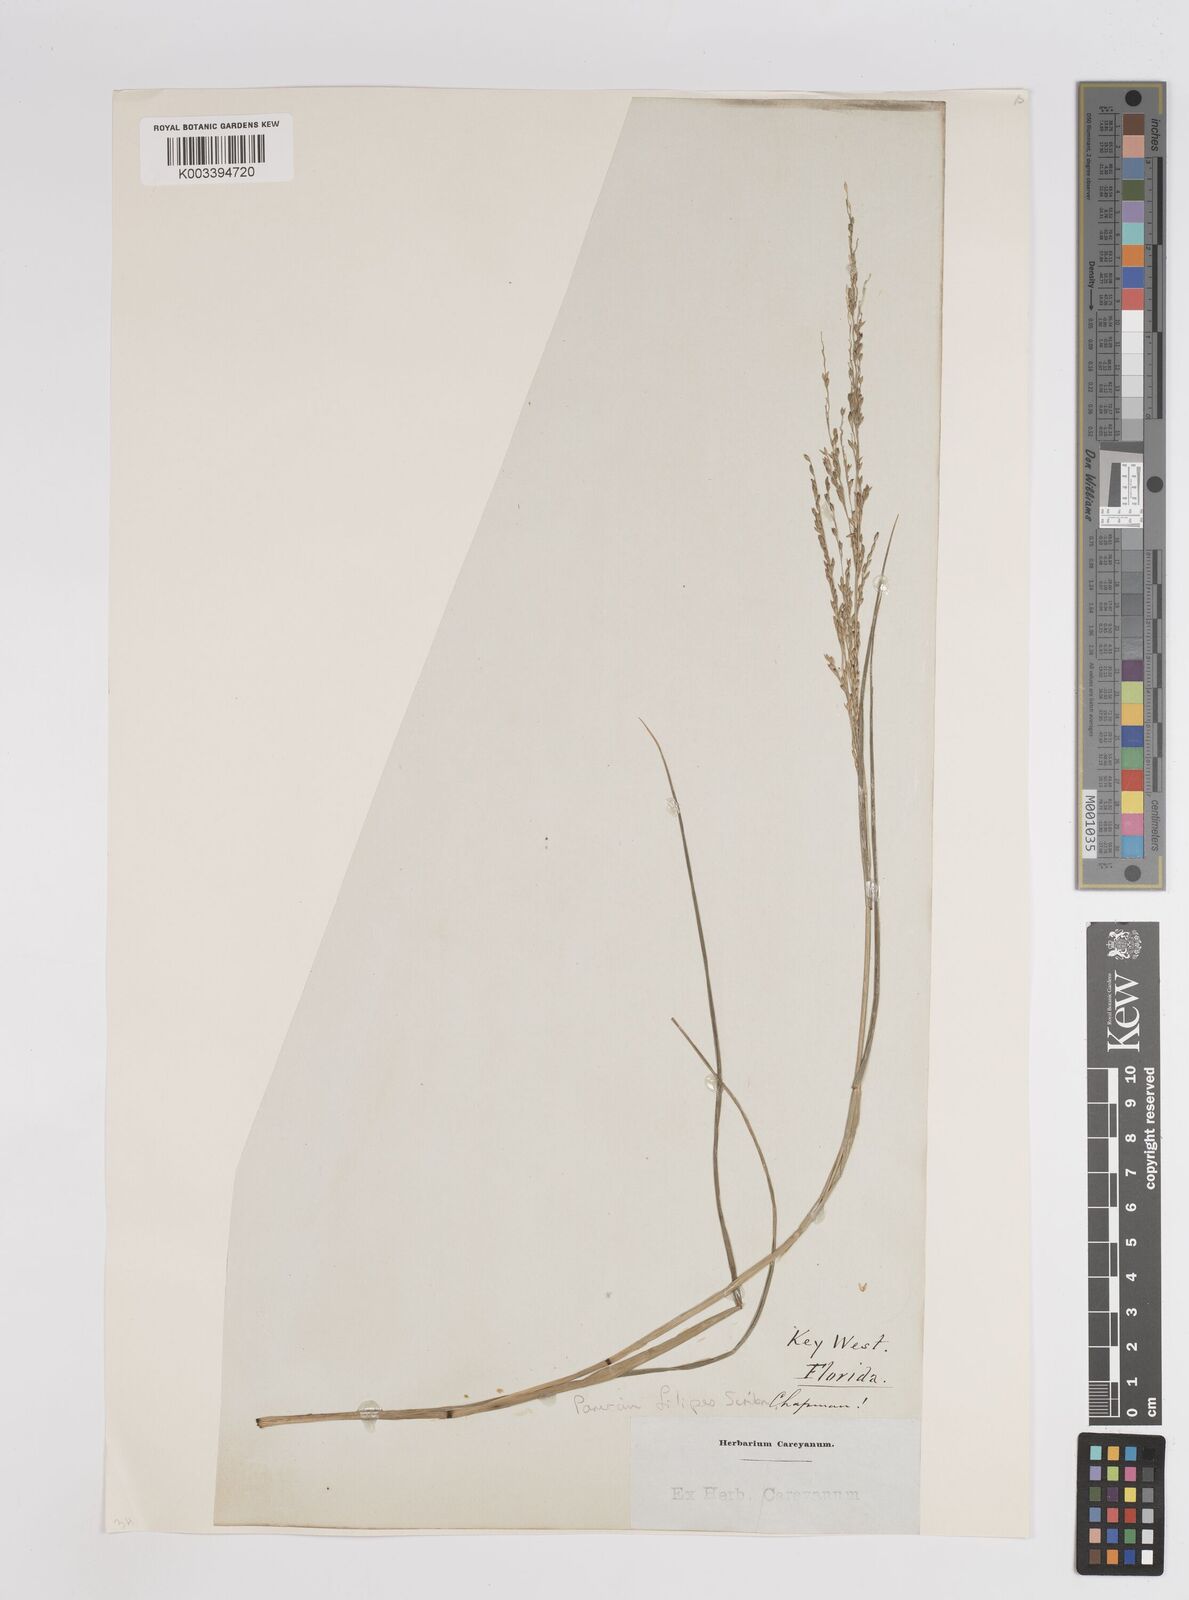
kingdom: Plantae
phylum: Tracheophyta
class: Liliopsida
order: Poales
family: Poaceae
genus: Panicum
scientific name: Panicum hallii
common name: Hall's witchgrass
